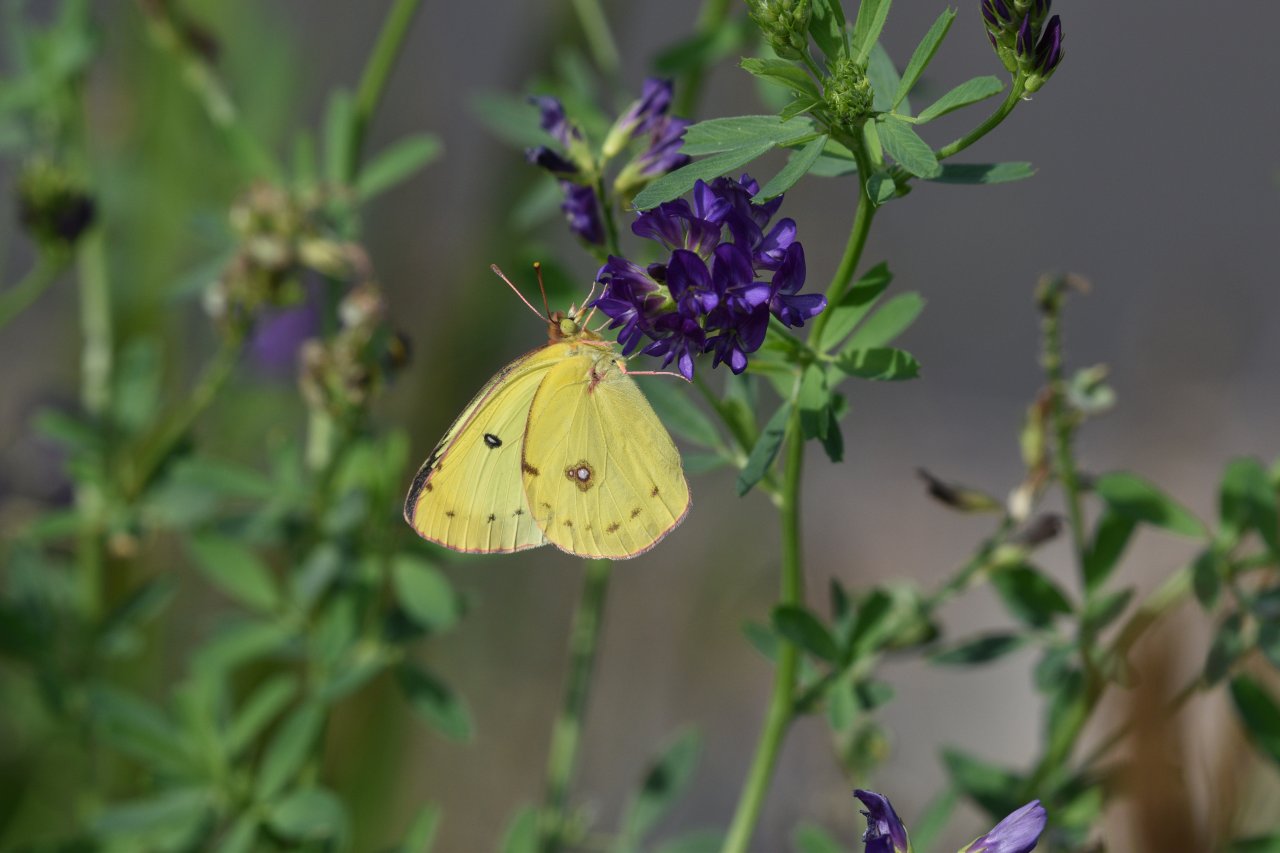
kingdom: Animalia
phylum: Arthropoda
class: Insecta
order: Lepidoptera
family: Pieridae
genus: Colias
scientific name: Colias philodice
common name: Clouded Sulphur
